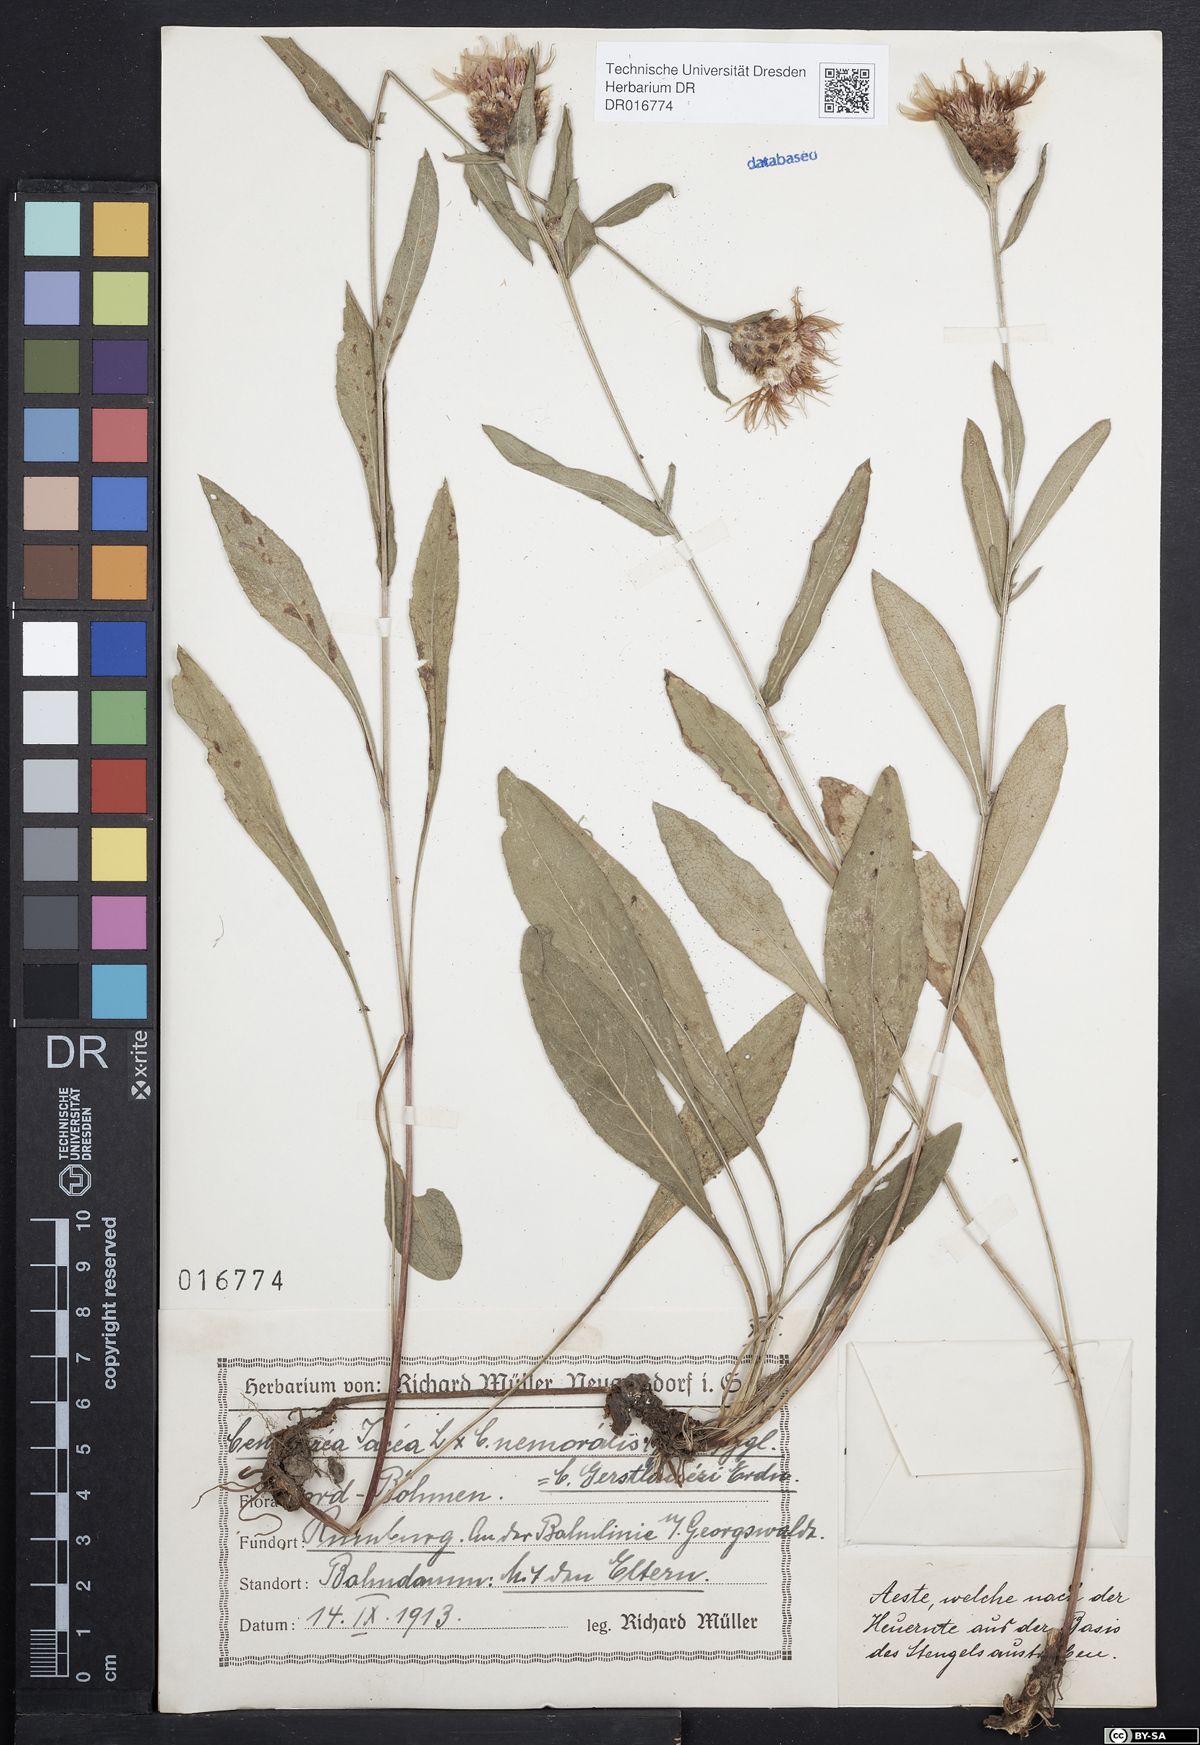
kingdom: Plantae
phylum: Tracheophyta
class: Magnoliopsida
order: Asterales
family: Asteraceae
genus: Centaurea
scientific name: Centaurea jacea
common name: Brown knapweed
